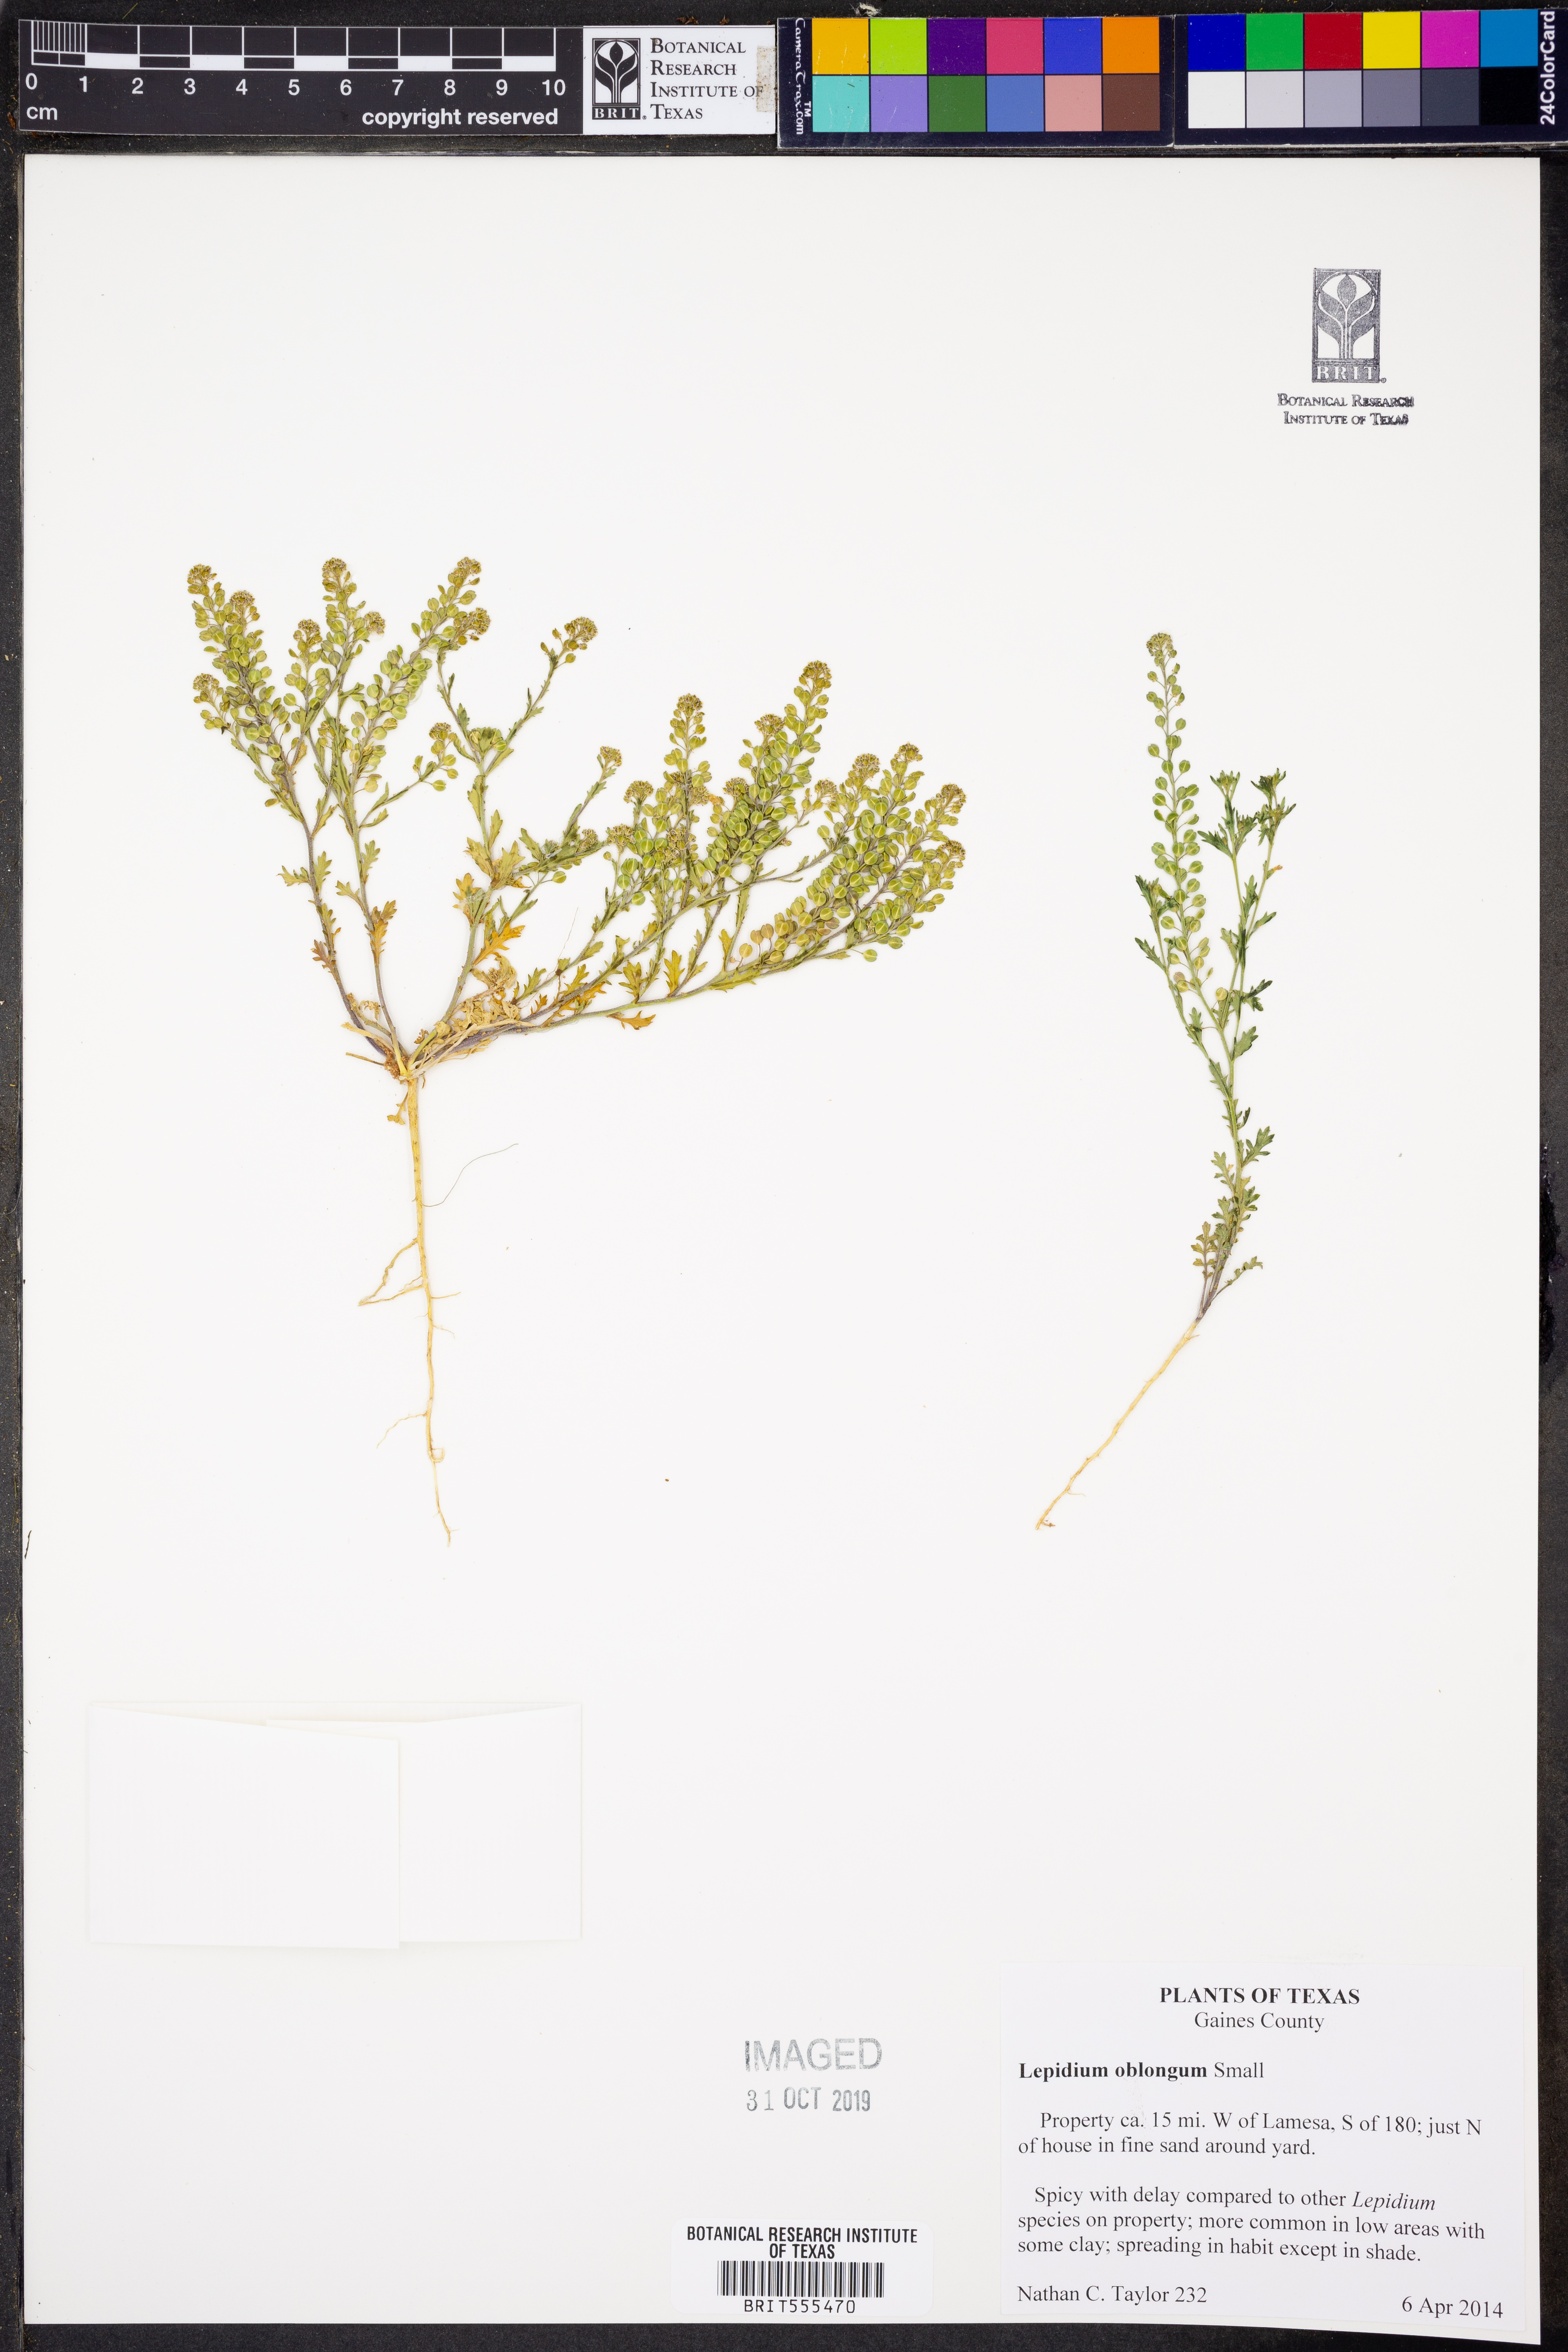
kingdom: Plantae
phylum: Tracheophyta
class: Magnoliopsida
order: Brassicales
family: Brassicaceae
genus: Lepidium
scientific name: Lepidium oblongum
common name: Veiny pepperweed
